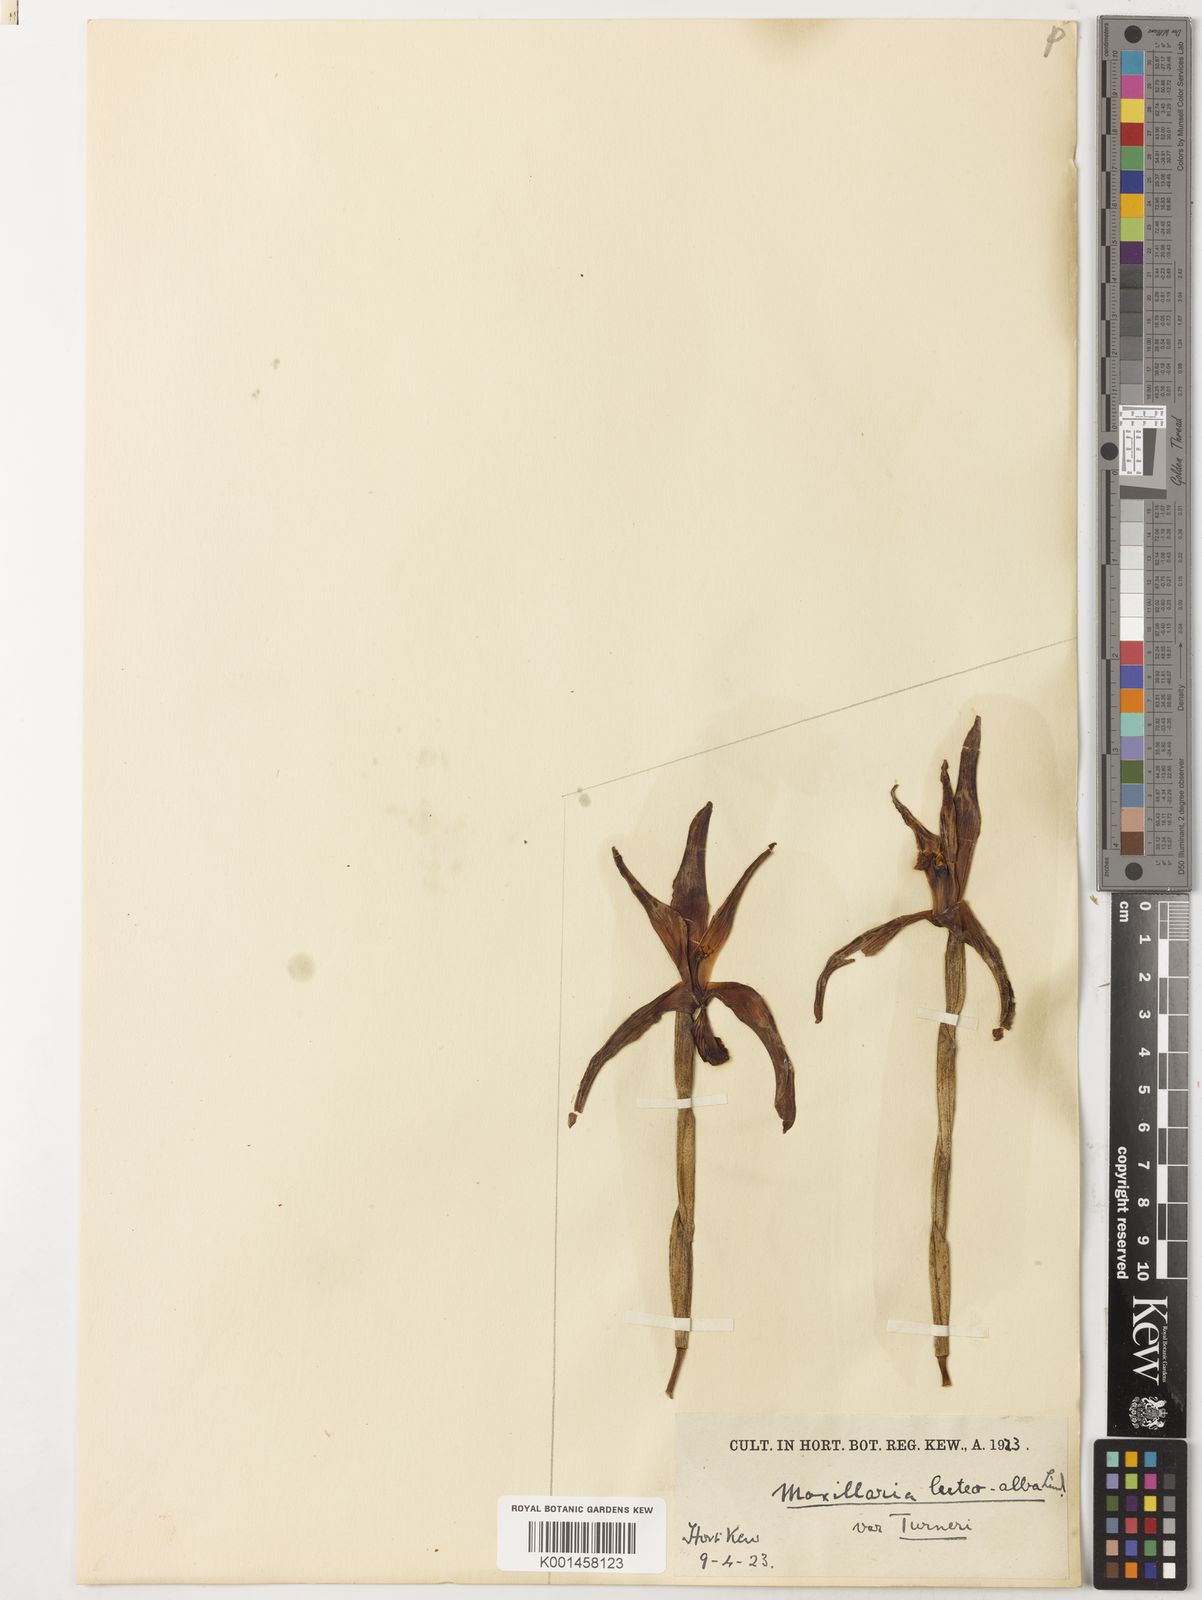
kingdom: Plantae
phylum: Tracheophyta
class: Liliopsida
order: Asparagales
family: Orchidaceae
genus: Maxillaria
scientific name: Maxillaria luteoalba
